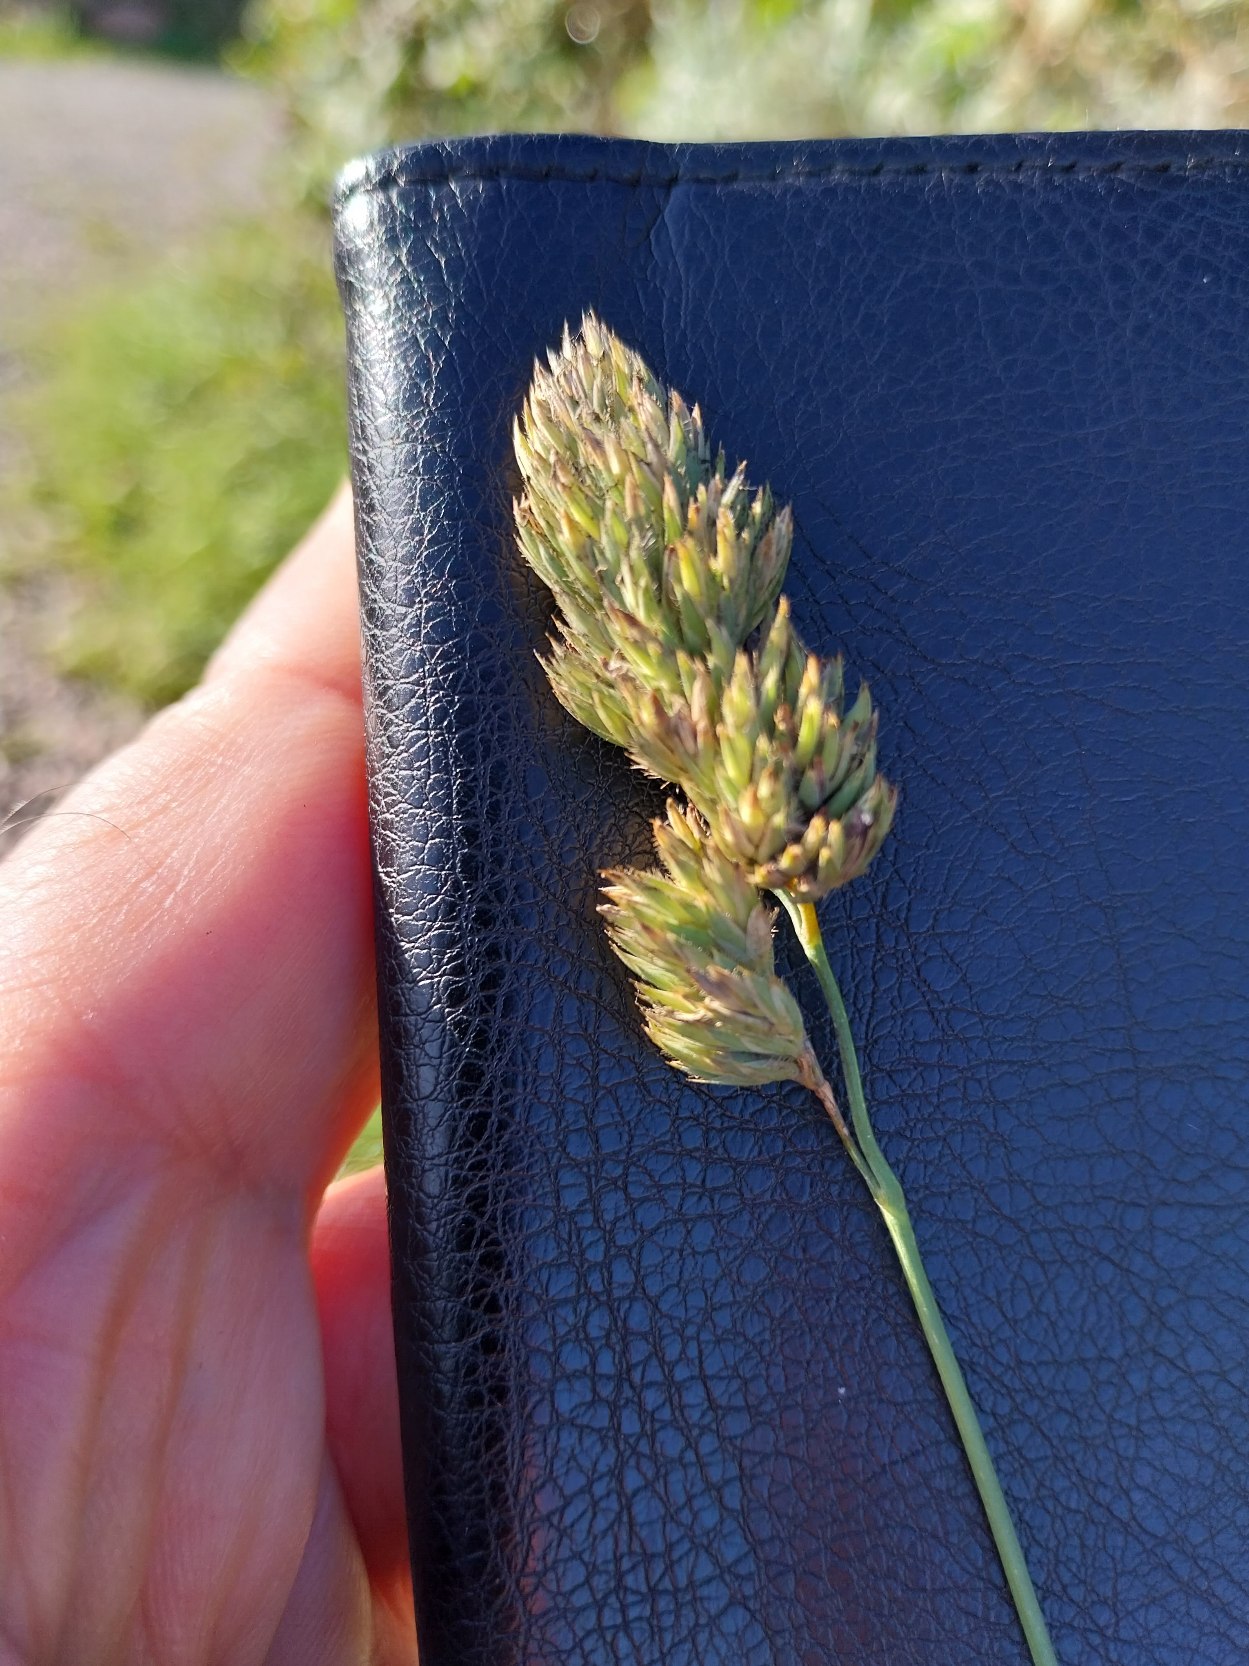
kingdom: Plantae
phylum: Tracheophyta
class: Liliopsida
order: Poales
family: Poaceae
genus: Dactylis
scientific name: Dactylis glomerata
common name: Almindelig hundegræs
